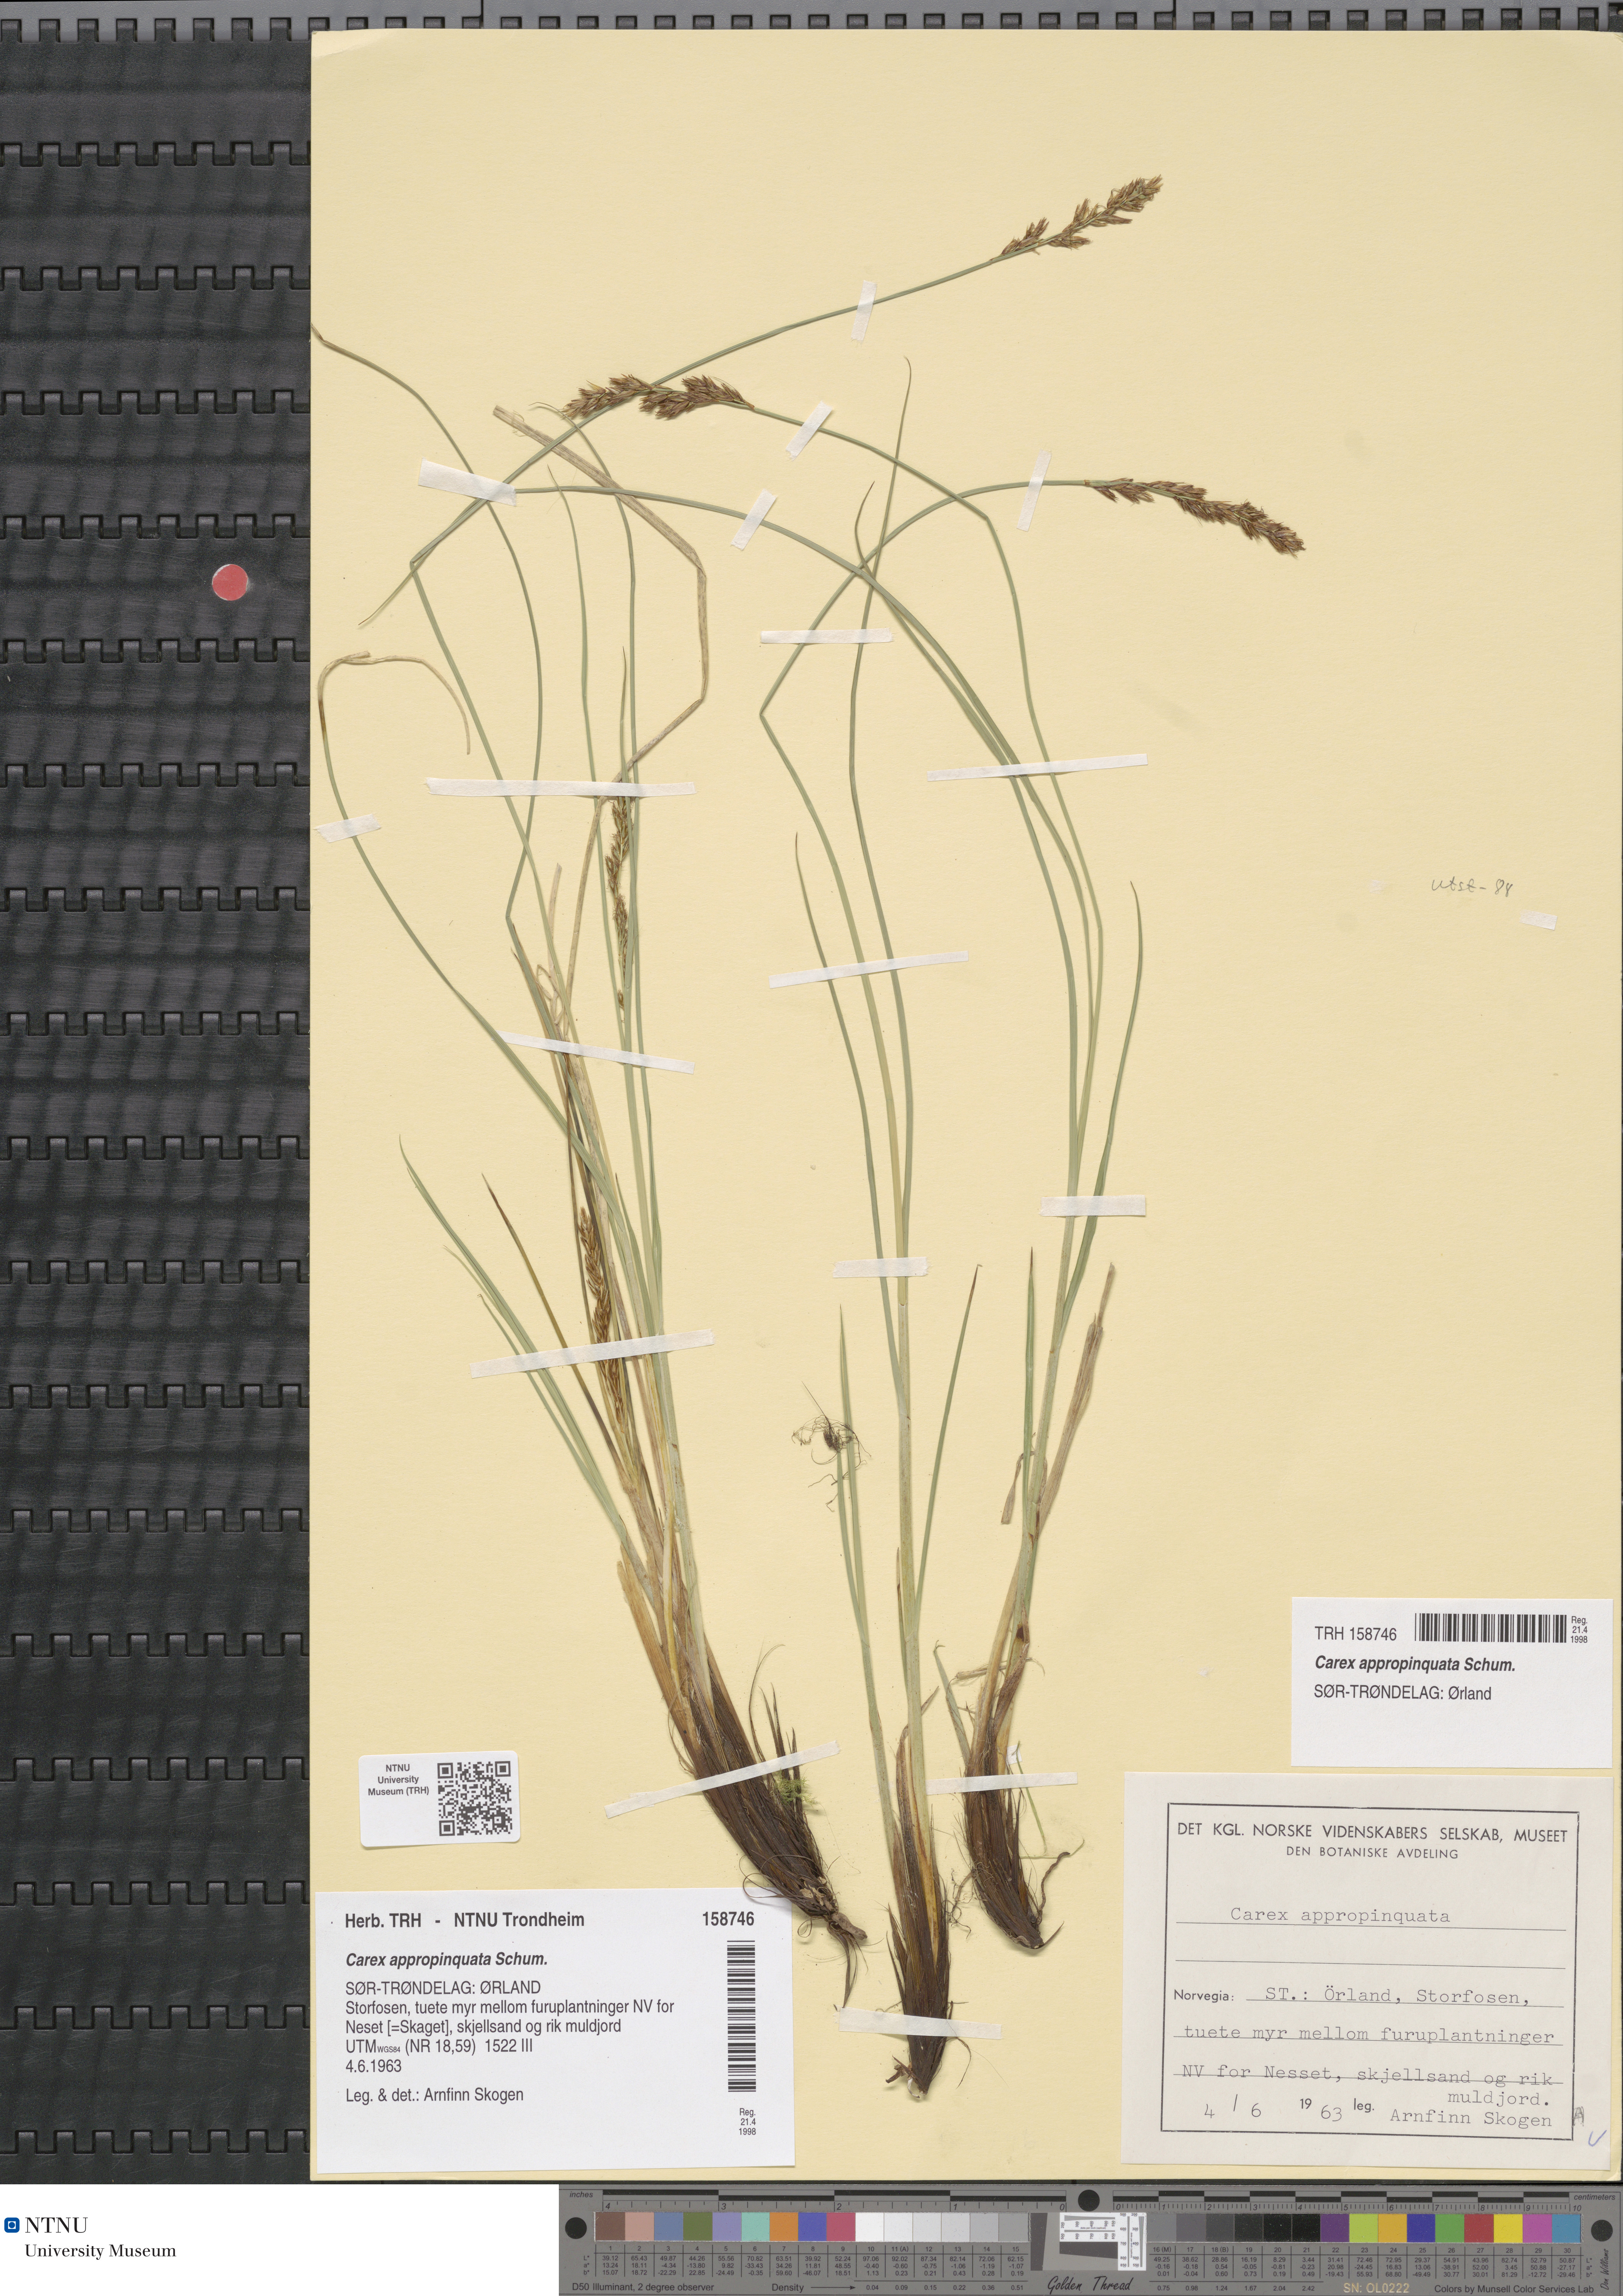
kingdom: Plantae
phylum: Tracheophyta
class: Liliopsida
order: Poales
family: Cyperaceae
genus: Carex
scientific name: Carex appropinquata
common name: Fibrous tussock-sedge
